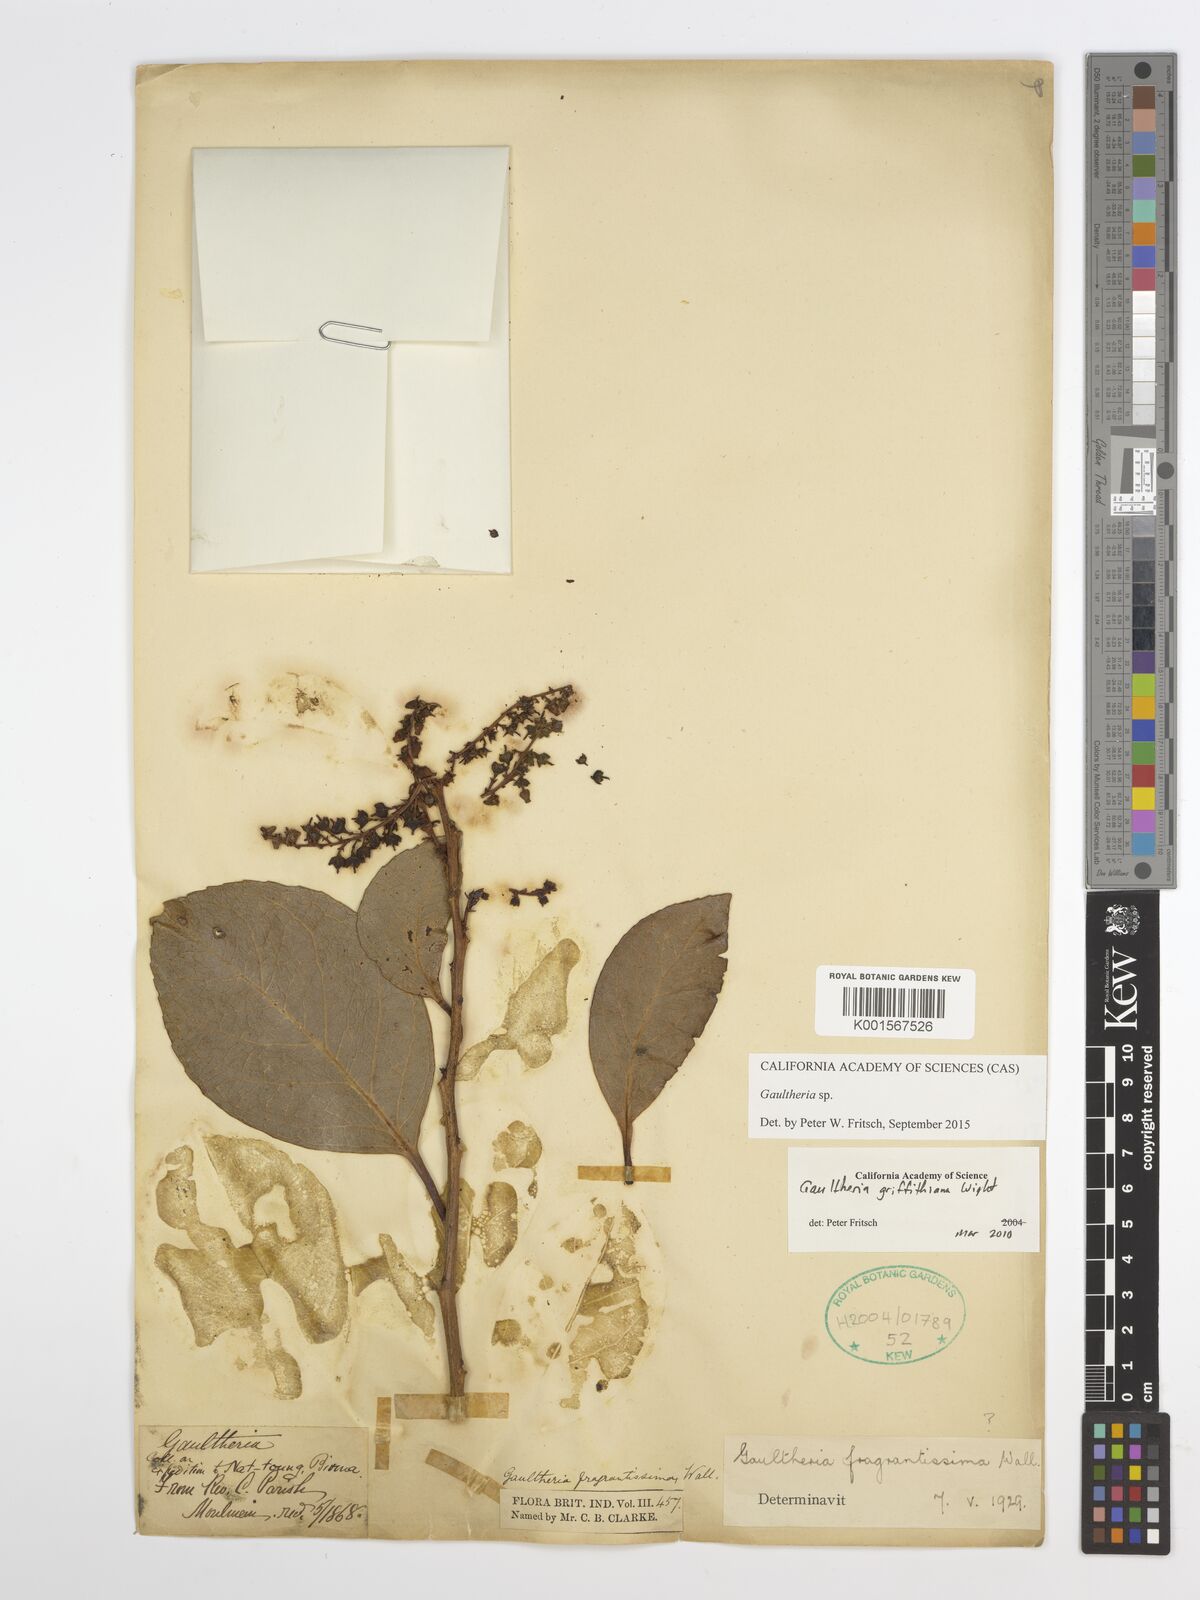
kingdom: Plantae
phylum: Tracheophyta
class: Magnoliopsida
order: Ericales
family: Ericaceae
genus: Gaultheria
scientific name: Gaultheria
